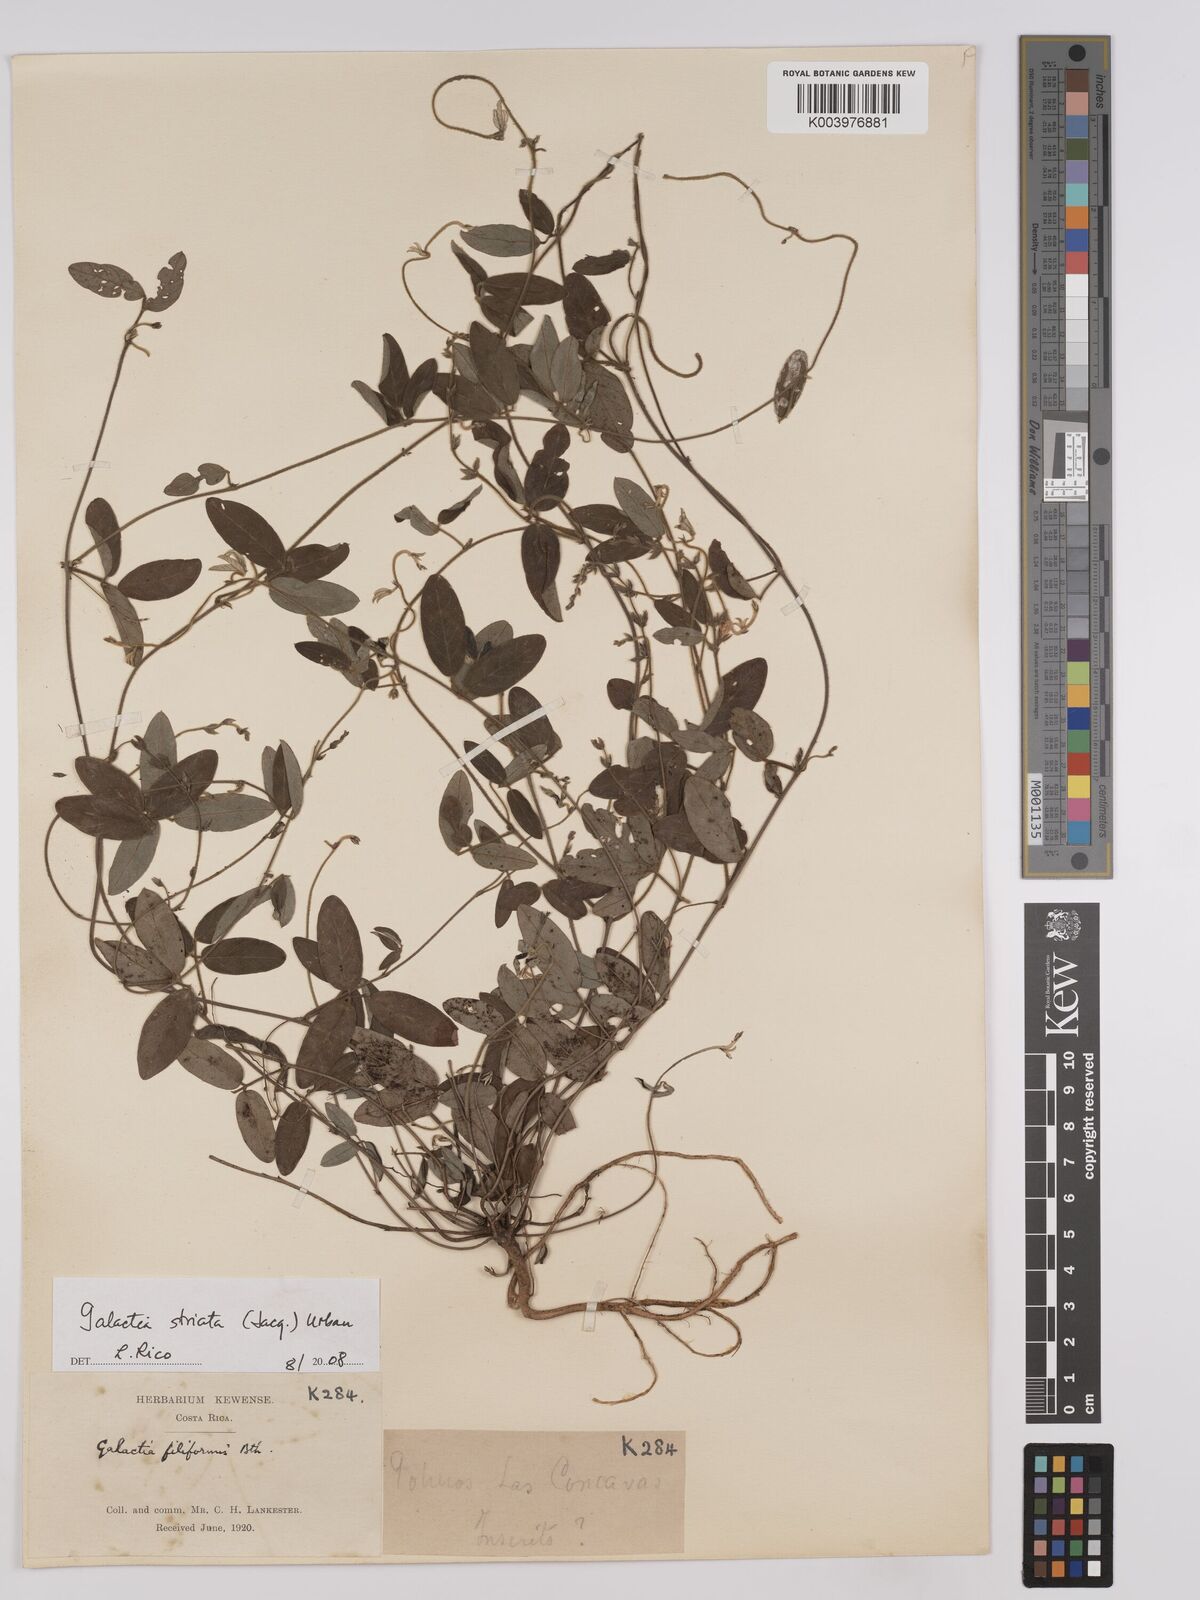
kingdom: Plantae
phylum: Tracheophyta
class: Magnoliopsida
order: Fabales
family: Fabaceae
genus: Galactia
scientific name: Galactia striata
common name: Florida hammock milkpea
